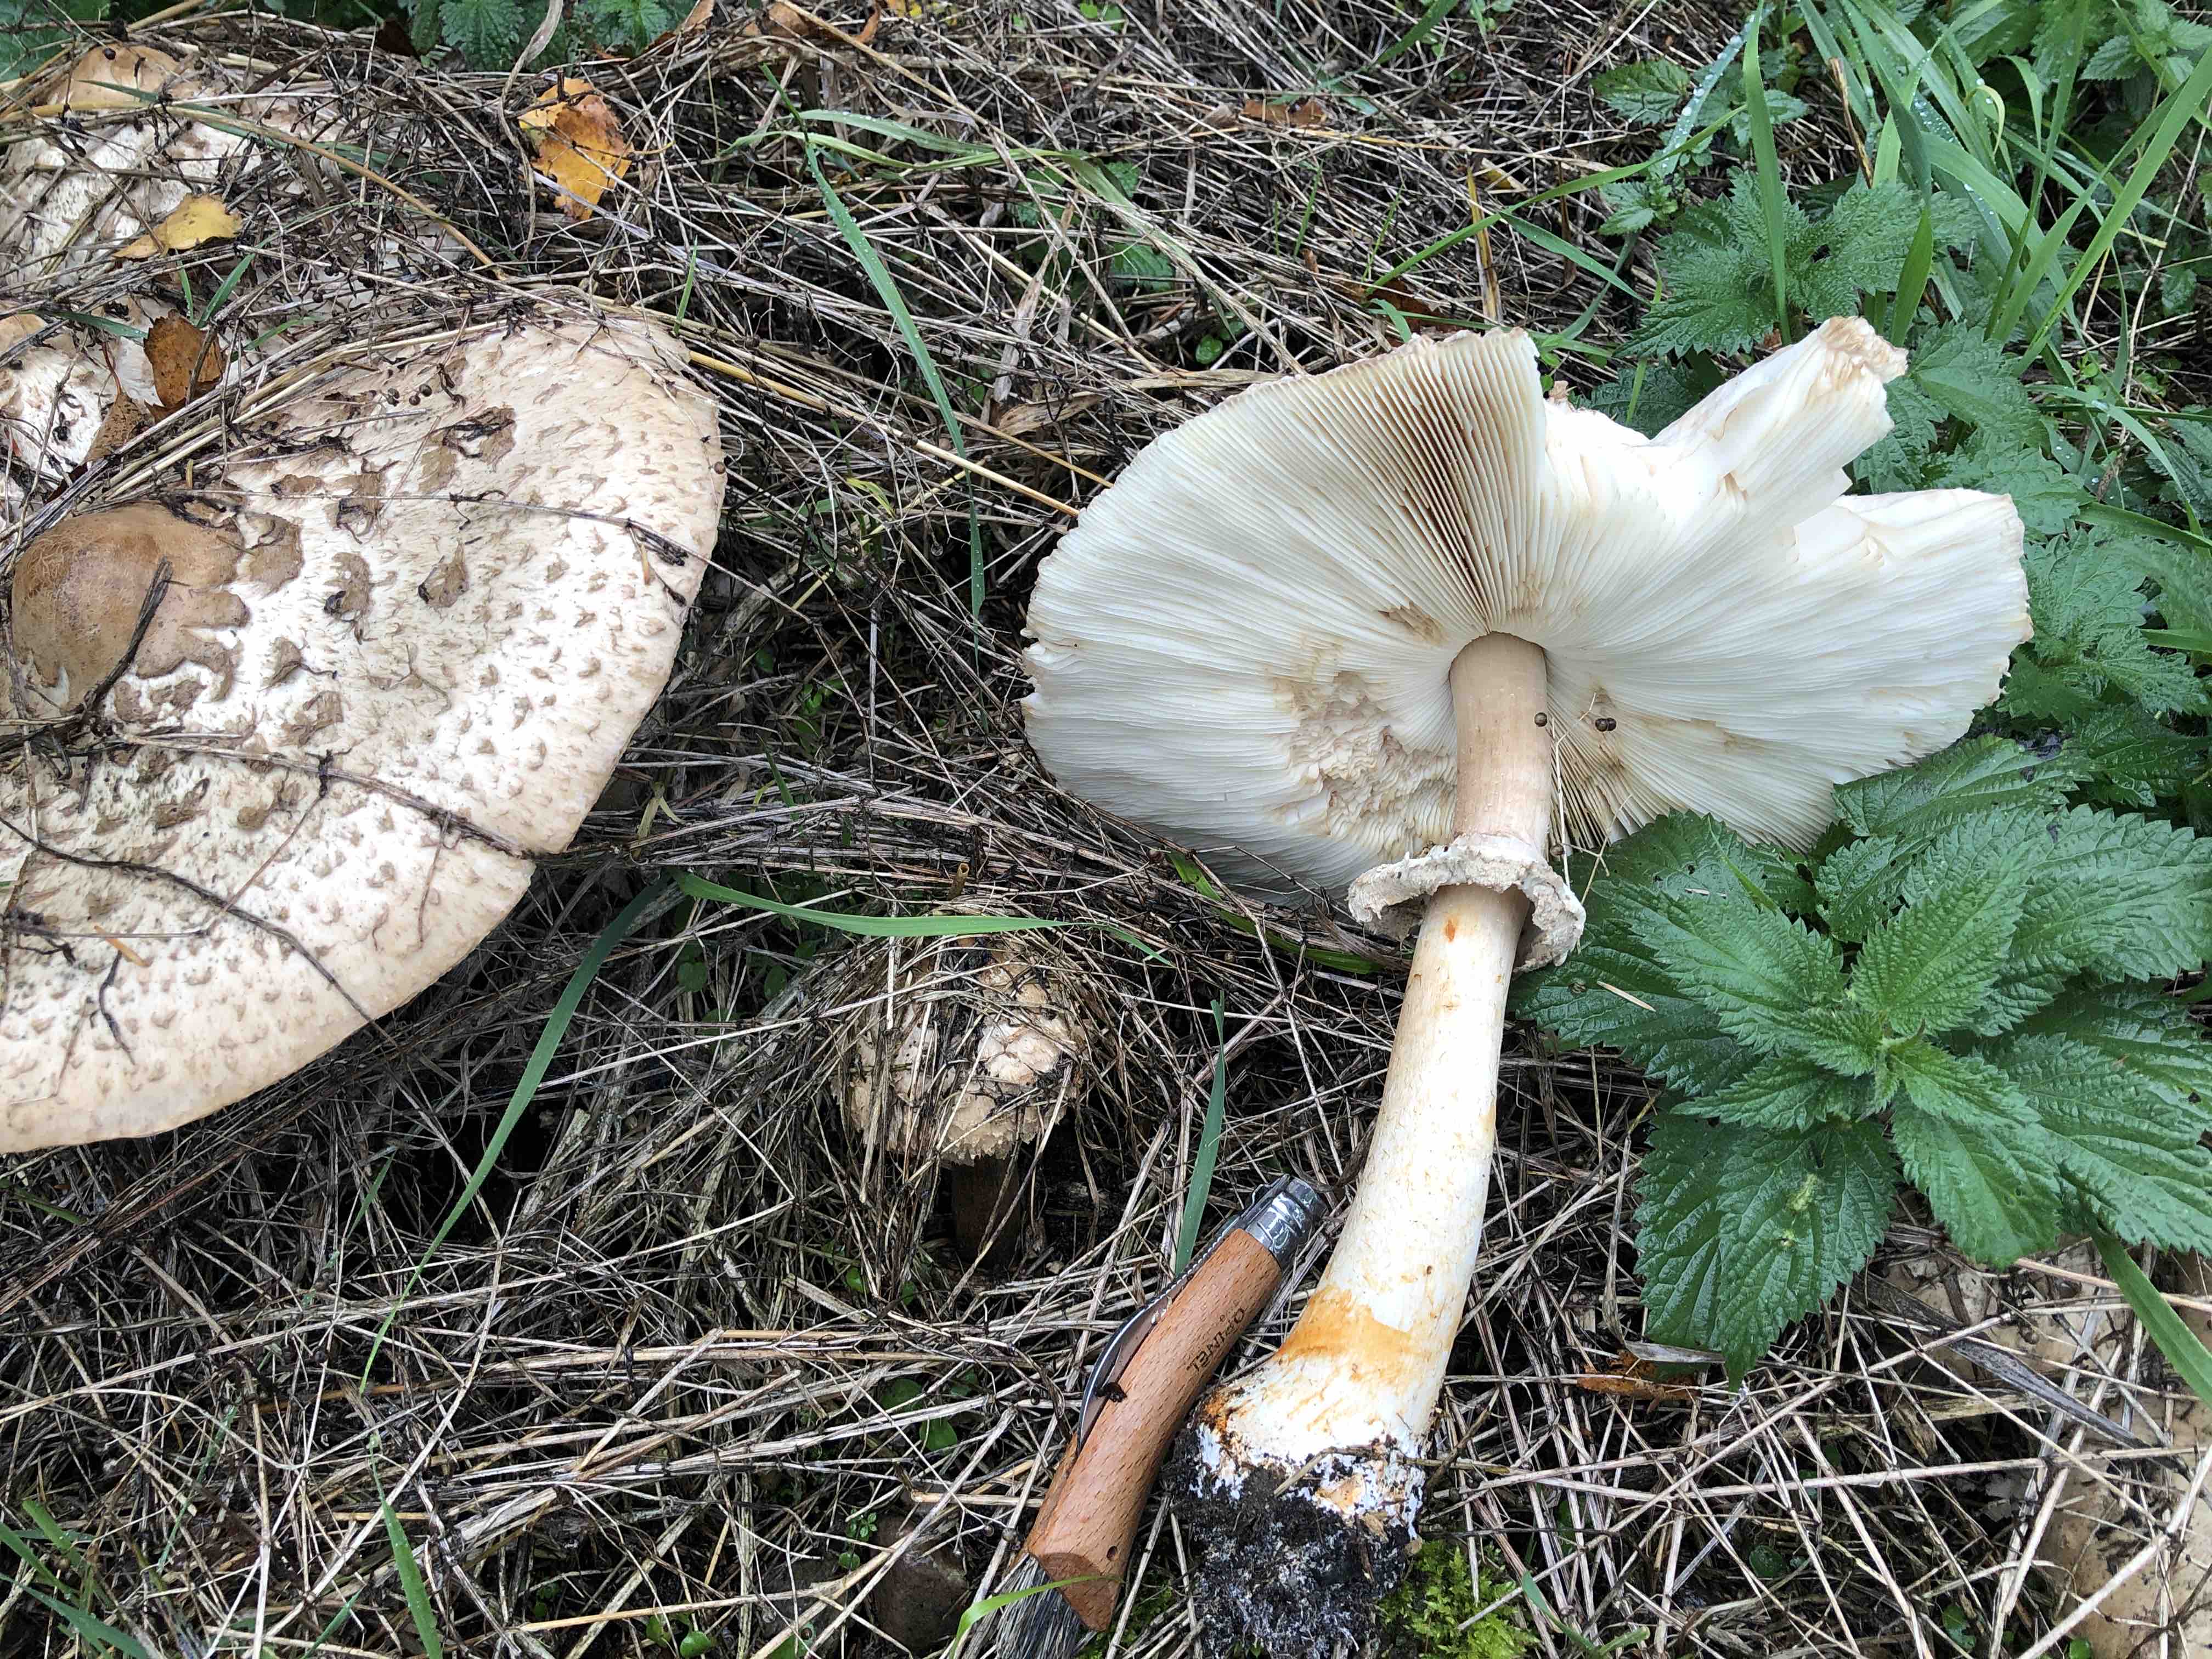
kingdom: Fungi
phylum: Basidiomycota
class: Agaricomycetes
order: Agaricales
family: Agaricaceae
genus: Chlorophyllum
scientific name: Chlorophyllum olivieri
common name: almindelig rabarberhat
